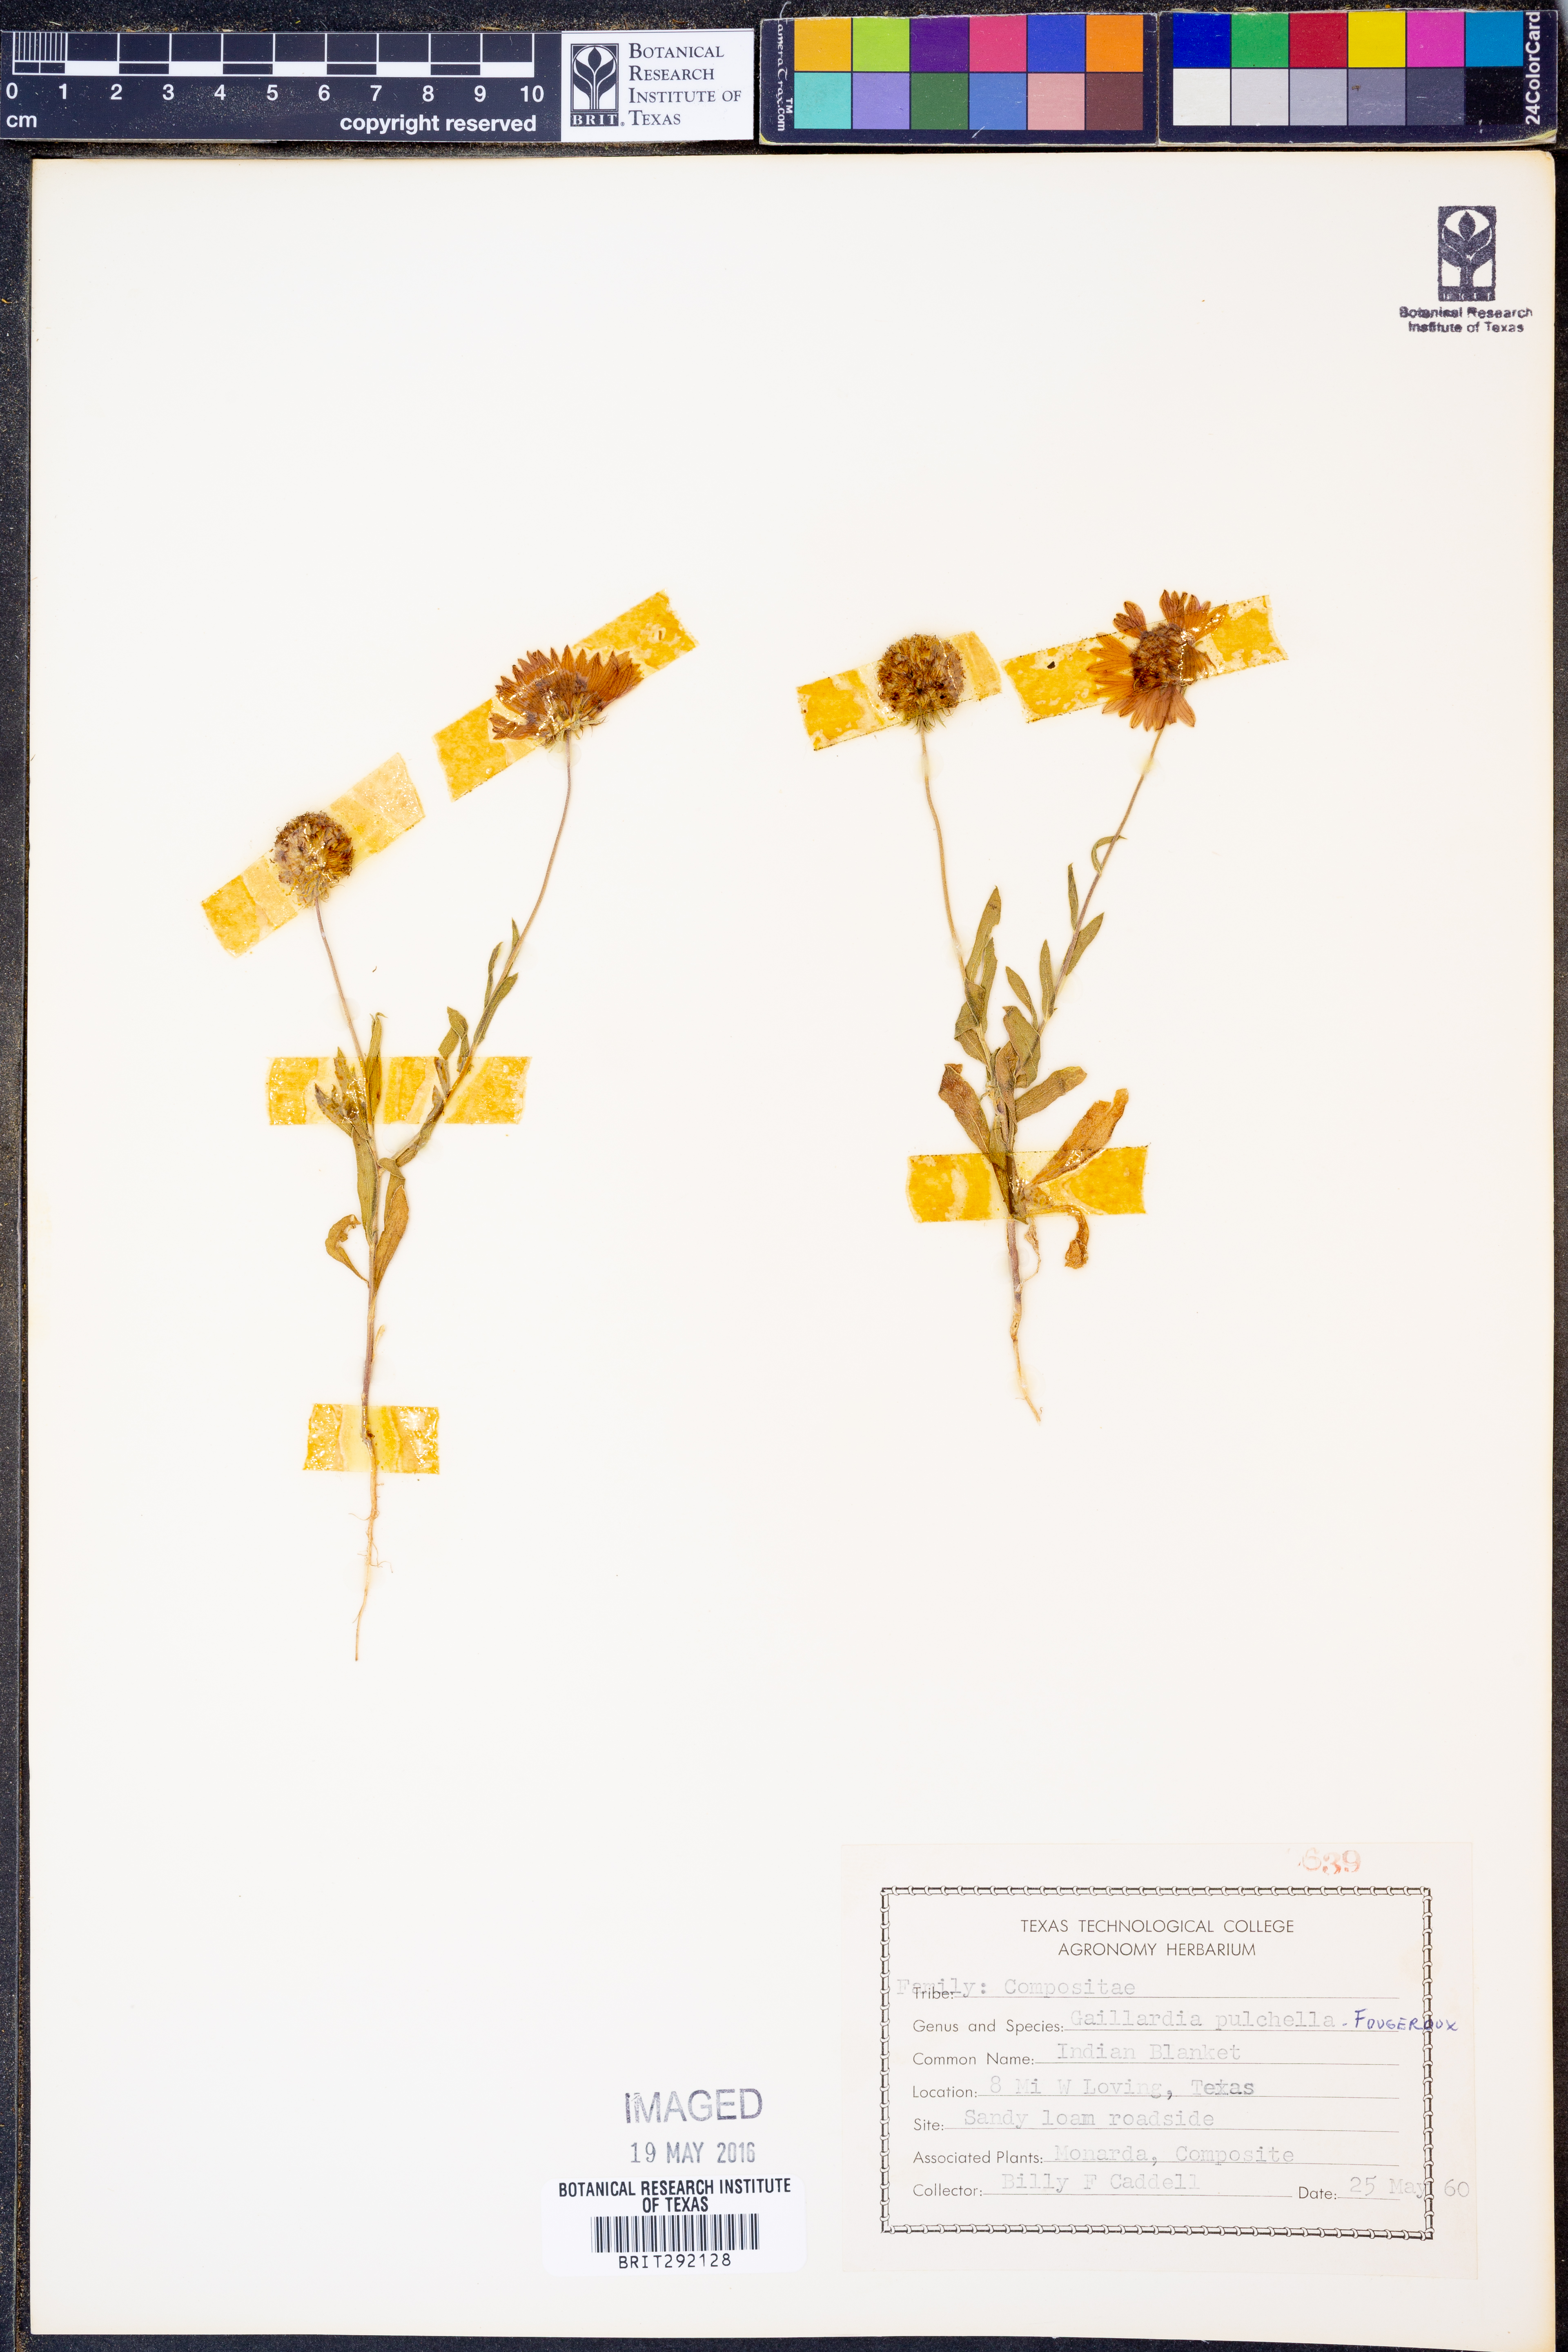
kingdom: Plantae
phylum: Tracheophyta
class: Magnoliopsida
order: Asterales
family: Asteraceae
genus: Gaillardia
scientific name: Gaillardia pulchella
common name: Firewheel
